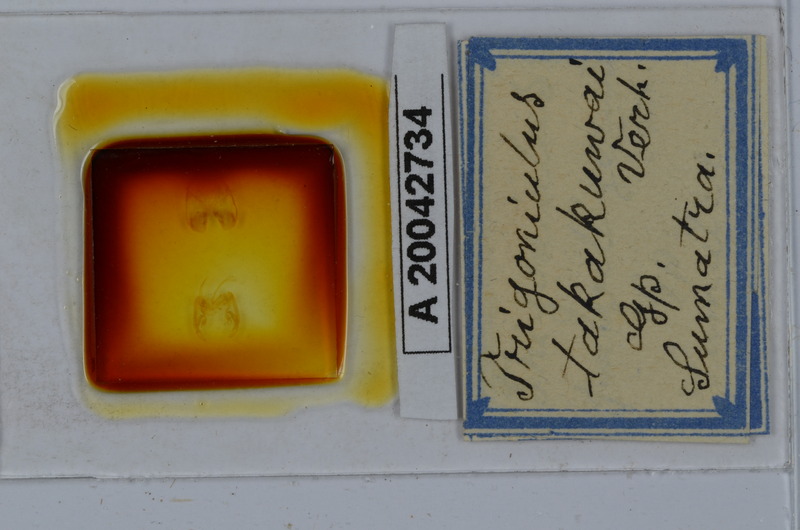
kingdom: Animalia
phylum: Arthropoda
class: Diplopoda
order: Spirobolida
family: Pachybolidae
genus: Trigoniulus
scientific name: Trigoniulus corallinus
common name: Millipede
